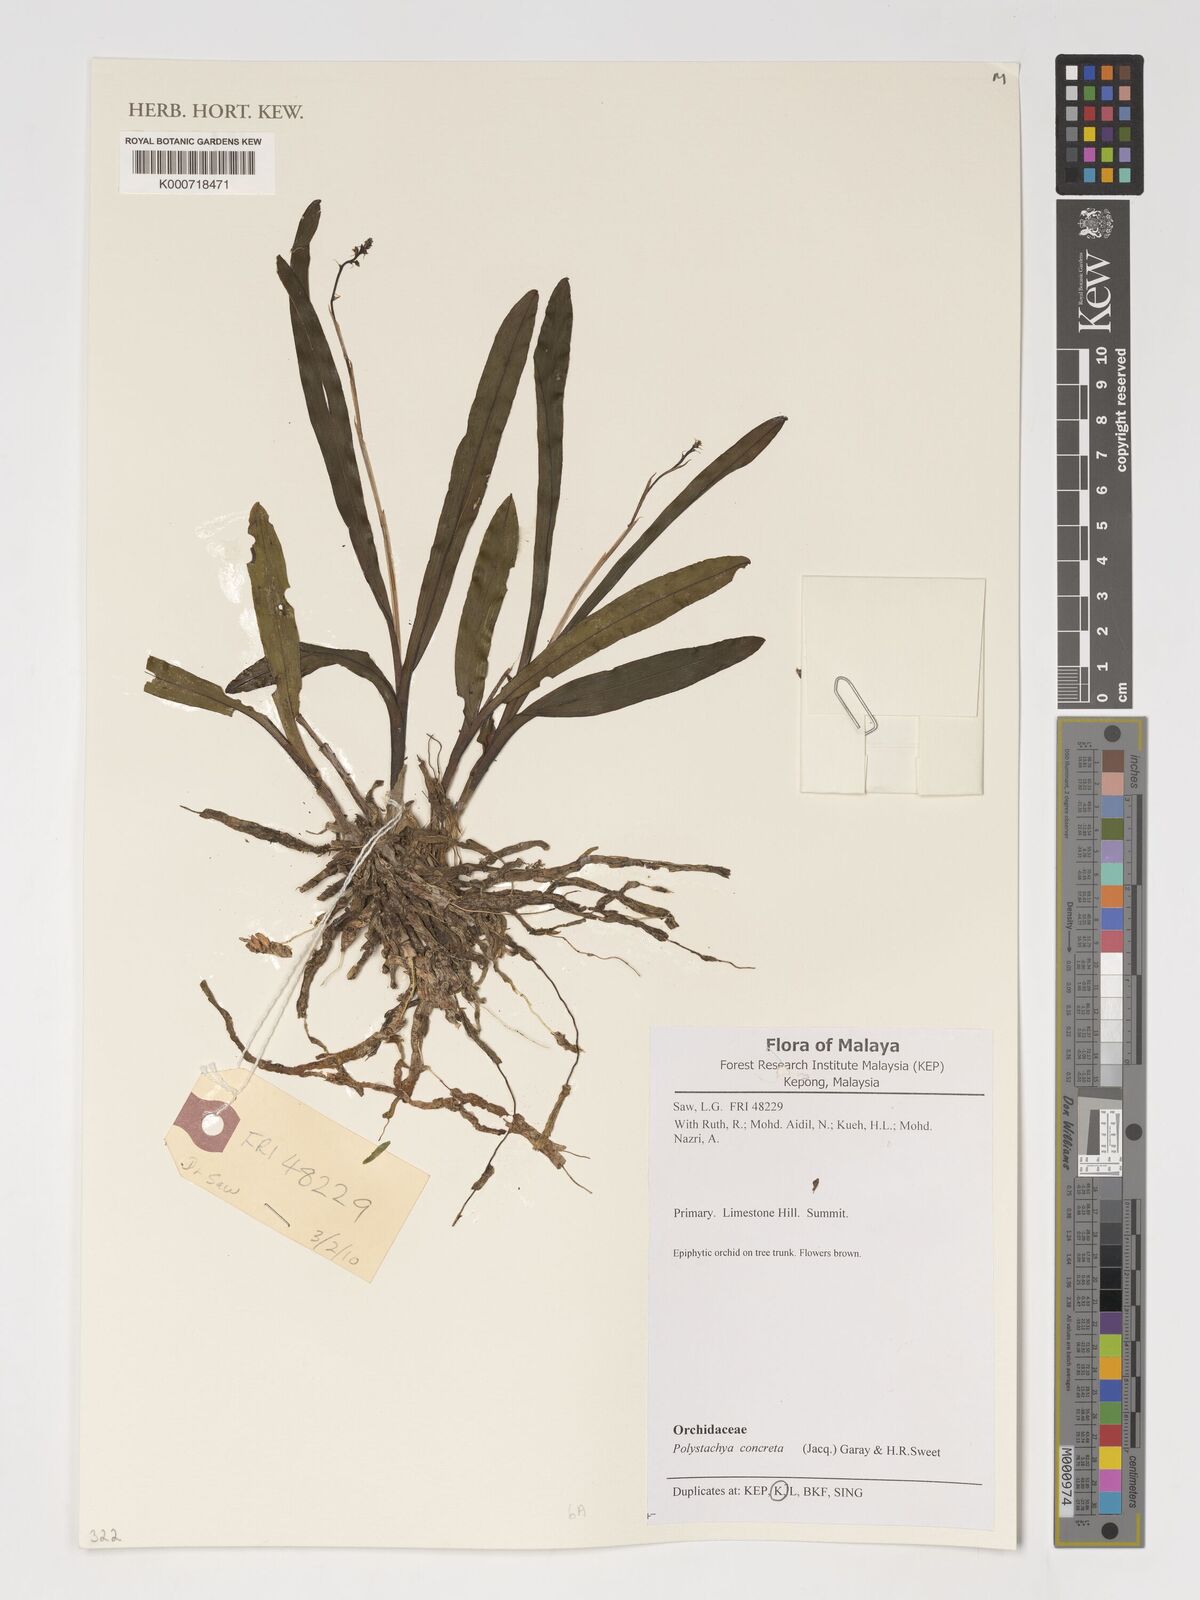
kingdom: Plantae
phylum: Tracheophyta
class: Liliopsida
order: Asparagales
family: Orchidaceae
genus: Polystachya
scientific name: Polystachya concreta
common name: Greater yellowspike orchid
